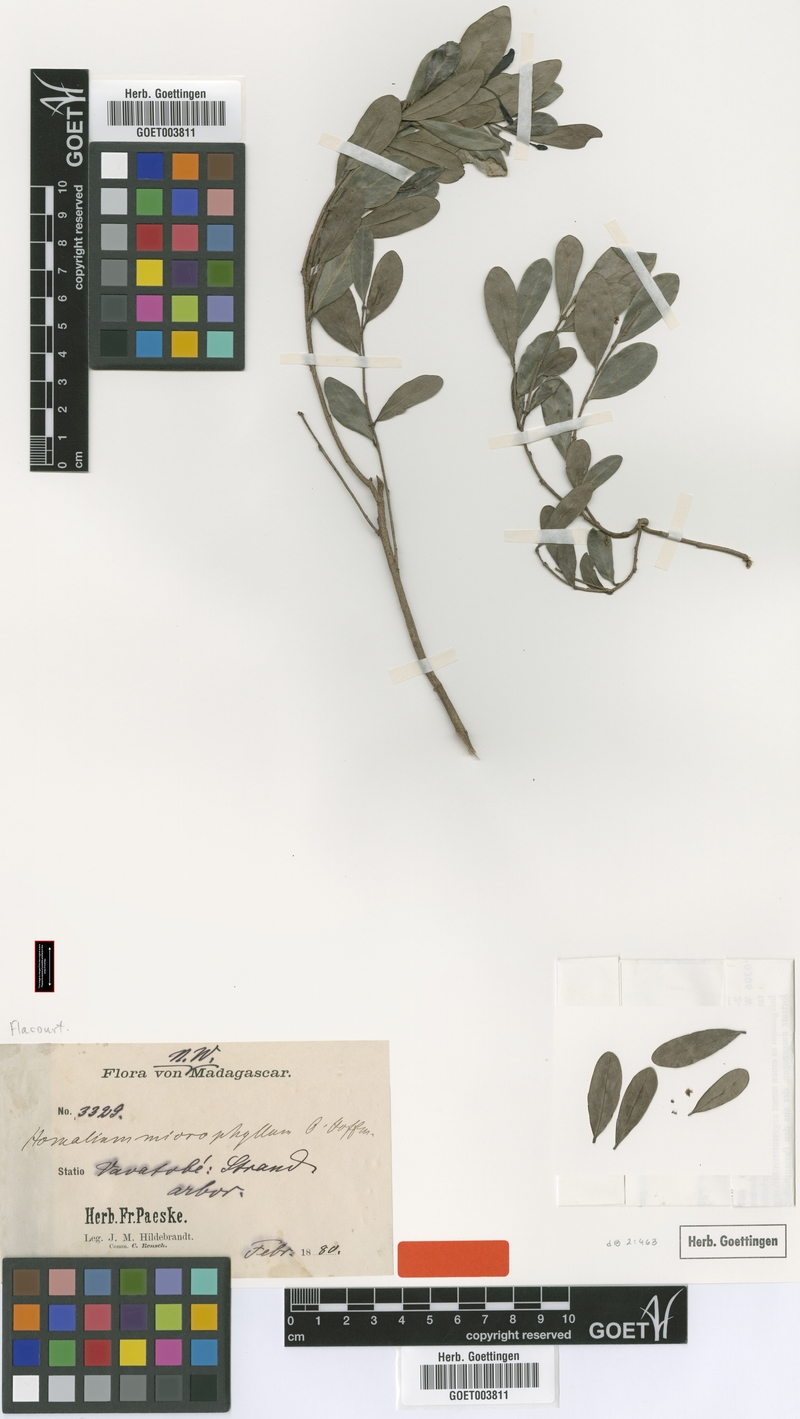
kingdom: Plantae
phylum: Tracheophyta
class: Magnoliopsida
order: Malpighiales
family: Salicaceae
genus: Homalium
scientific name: Homalium microphyllum
